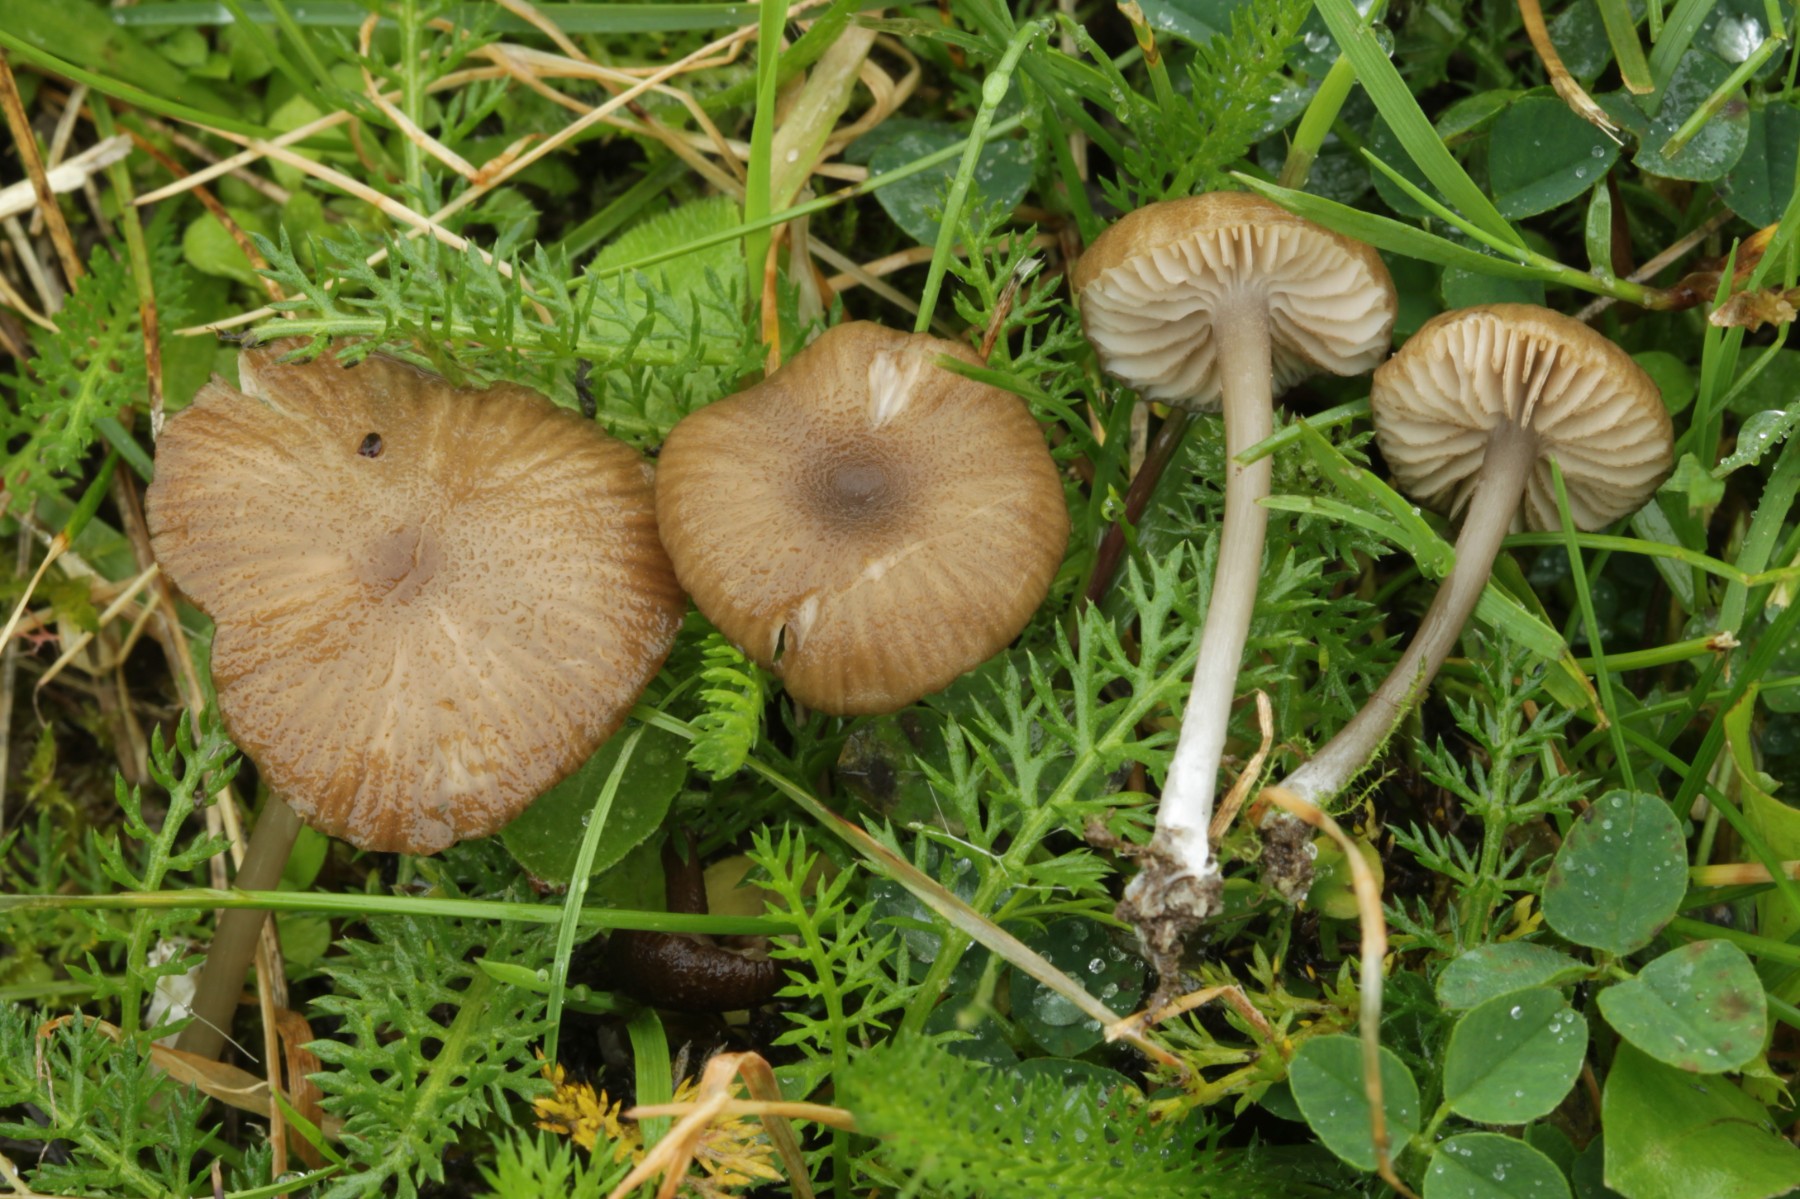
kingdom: Fungi
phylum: Basidiomycota
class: Agaricomycetes
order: Agaricales
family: Entolomataceae
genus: Entoloma
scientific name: Entoloma
